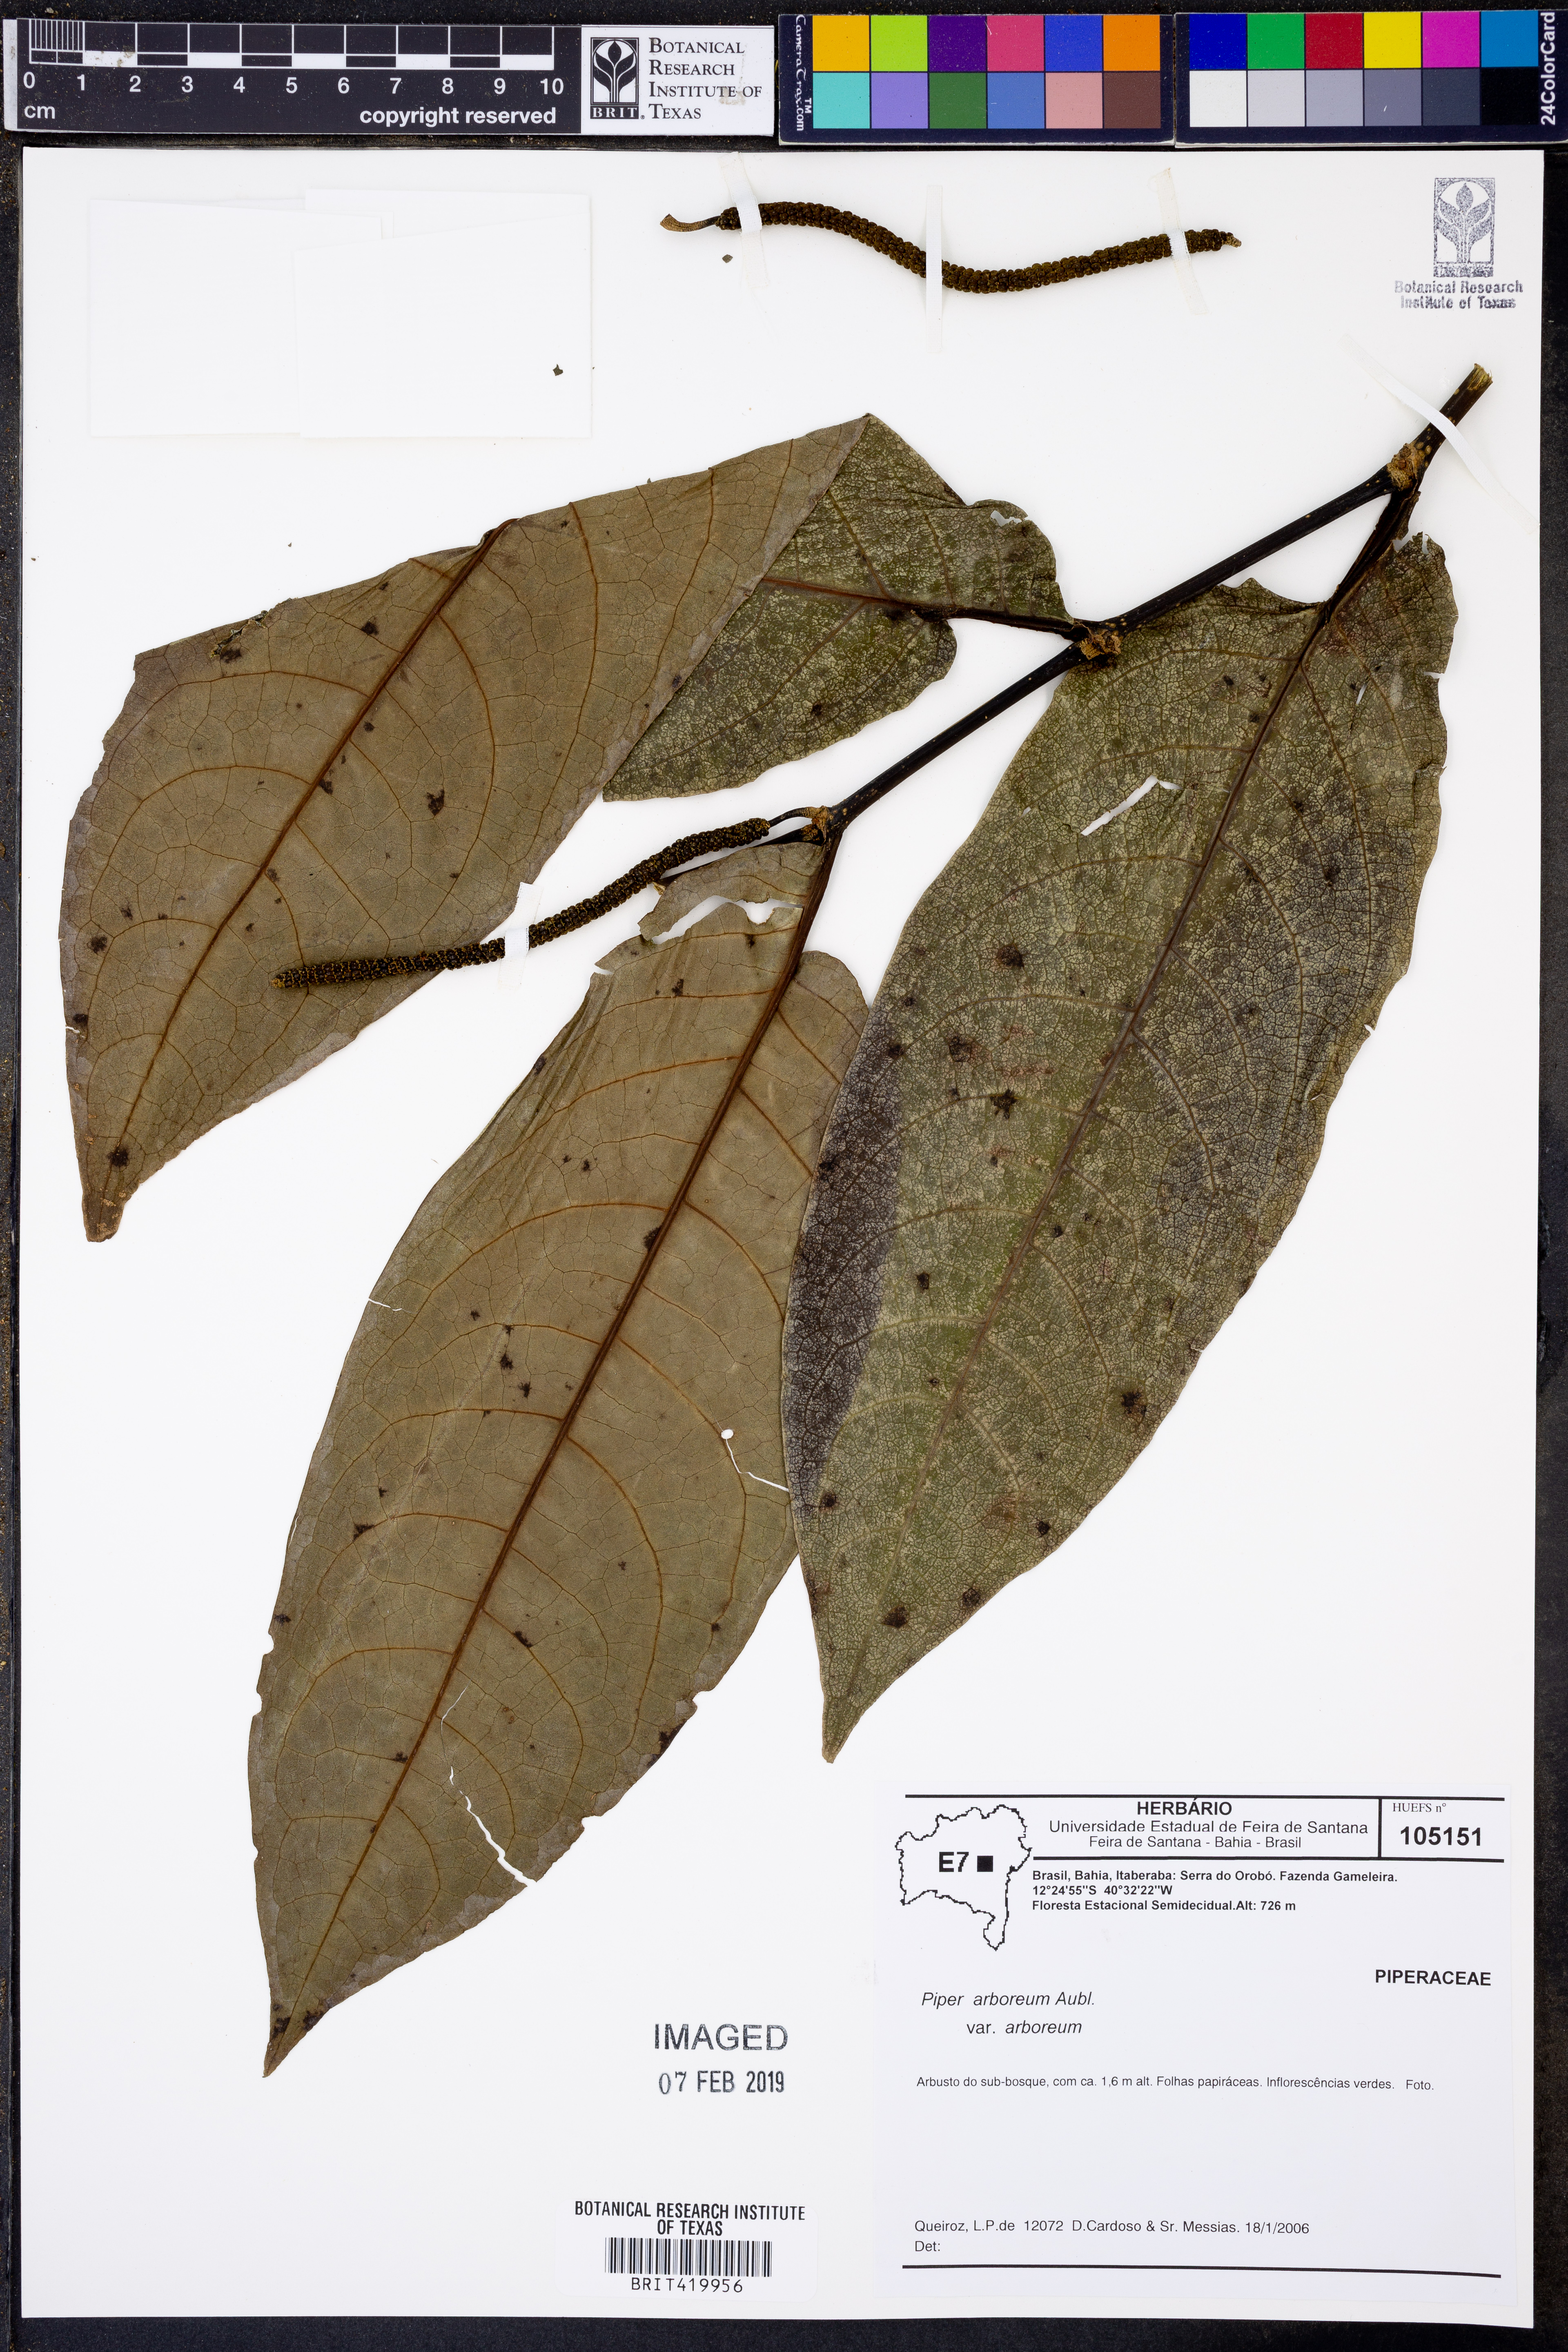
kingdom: Plantae
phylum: Tracheophyta
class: Magnoliopsida
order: Piperales
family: Piperaceae
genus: Piper
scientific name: Piper arboreum
